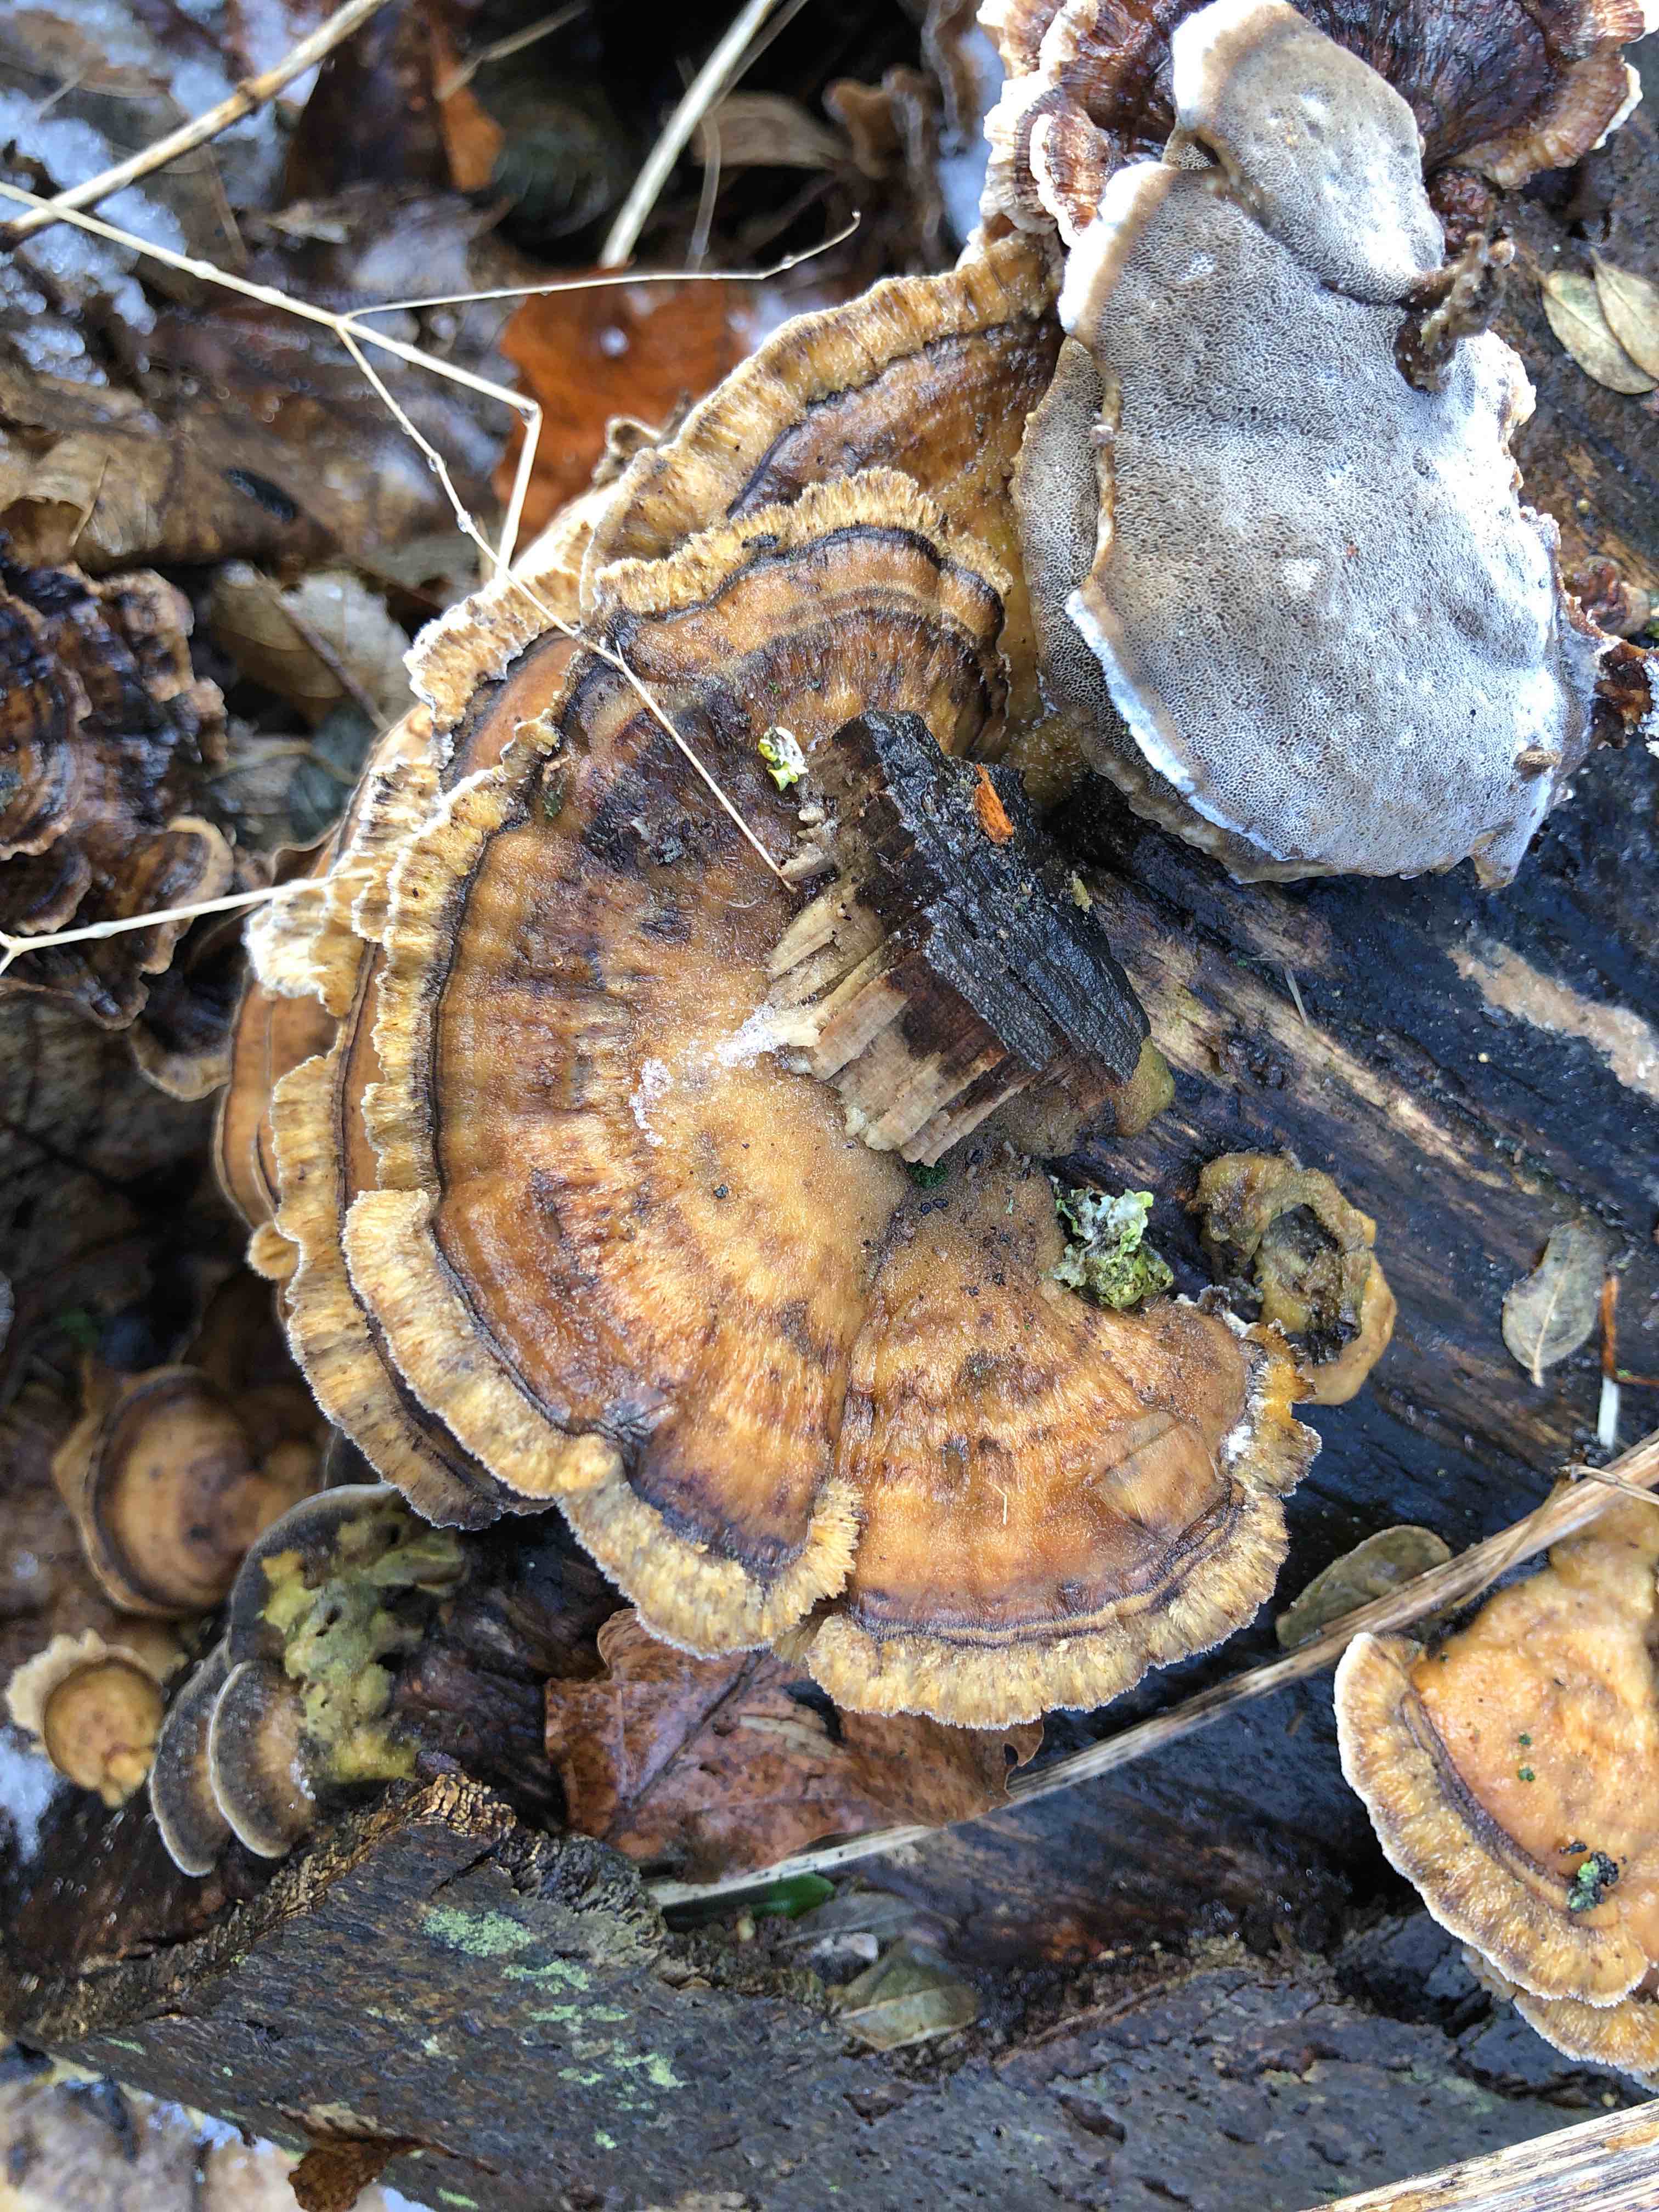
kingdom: Fungi
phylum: Basidiomycota
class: Agaricomycetes
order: Polyporales
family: Phanerochaetaceae
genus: Bjerkandera
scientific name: Bjerkandera adusta
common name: sveden sodporesvamp
